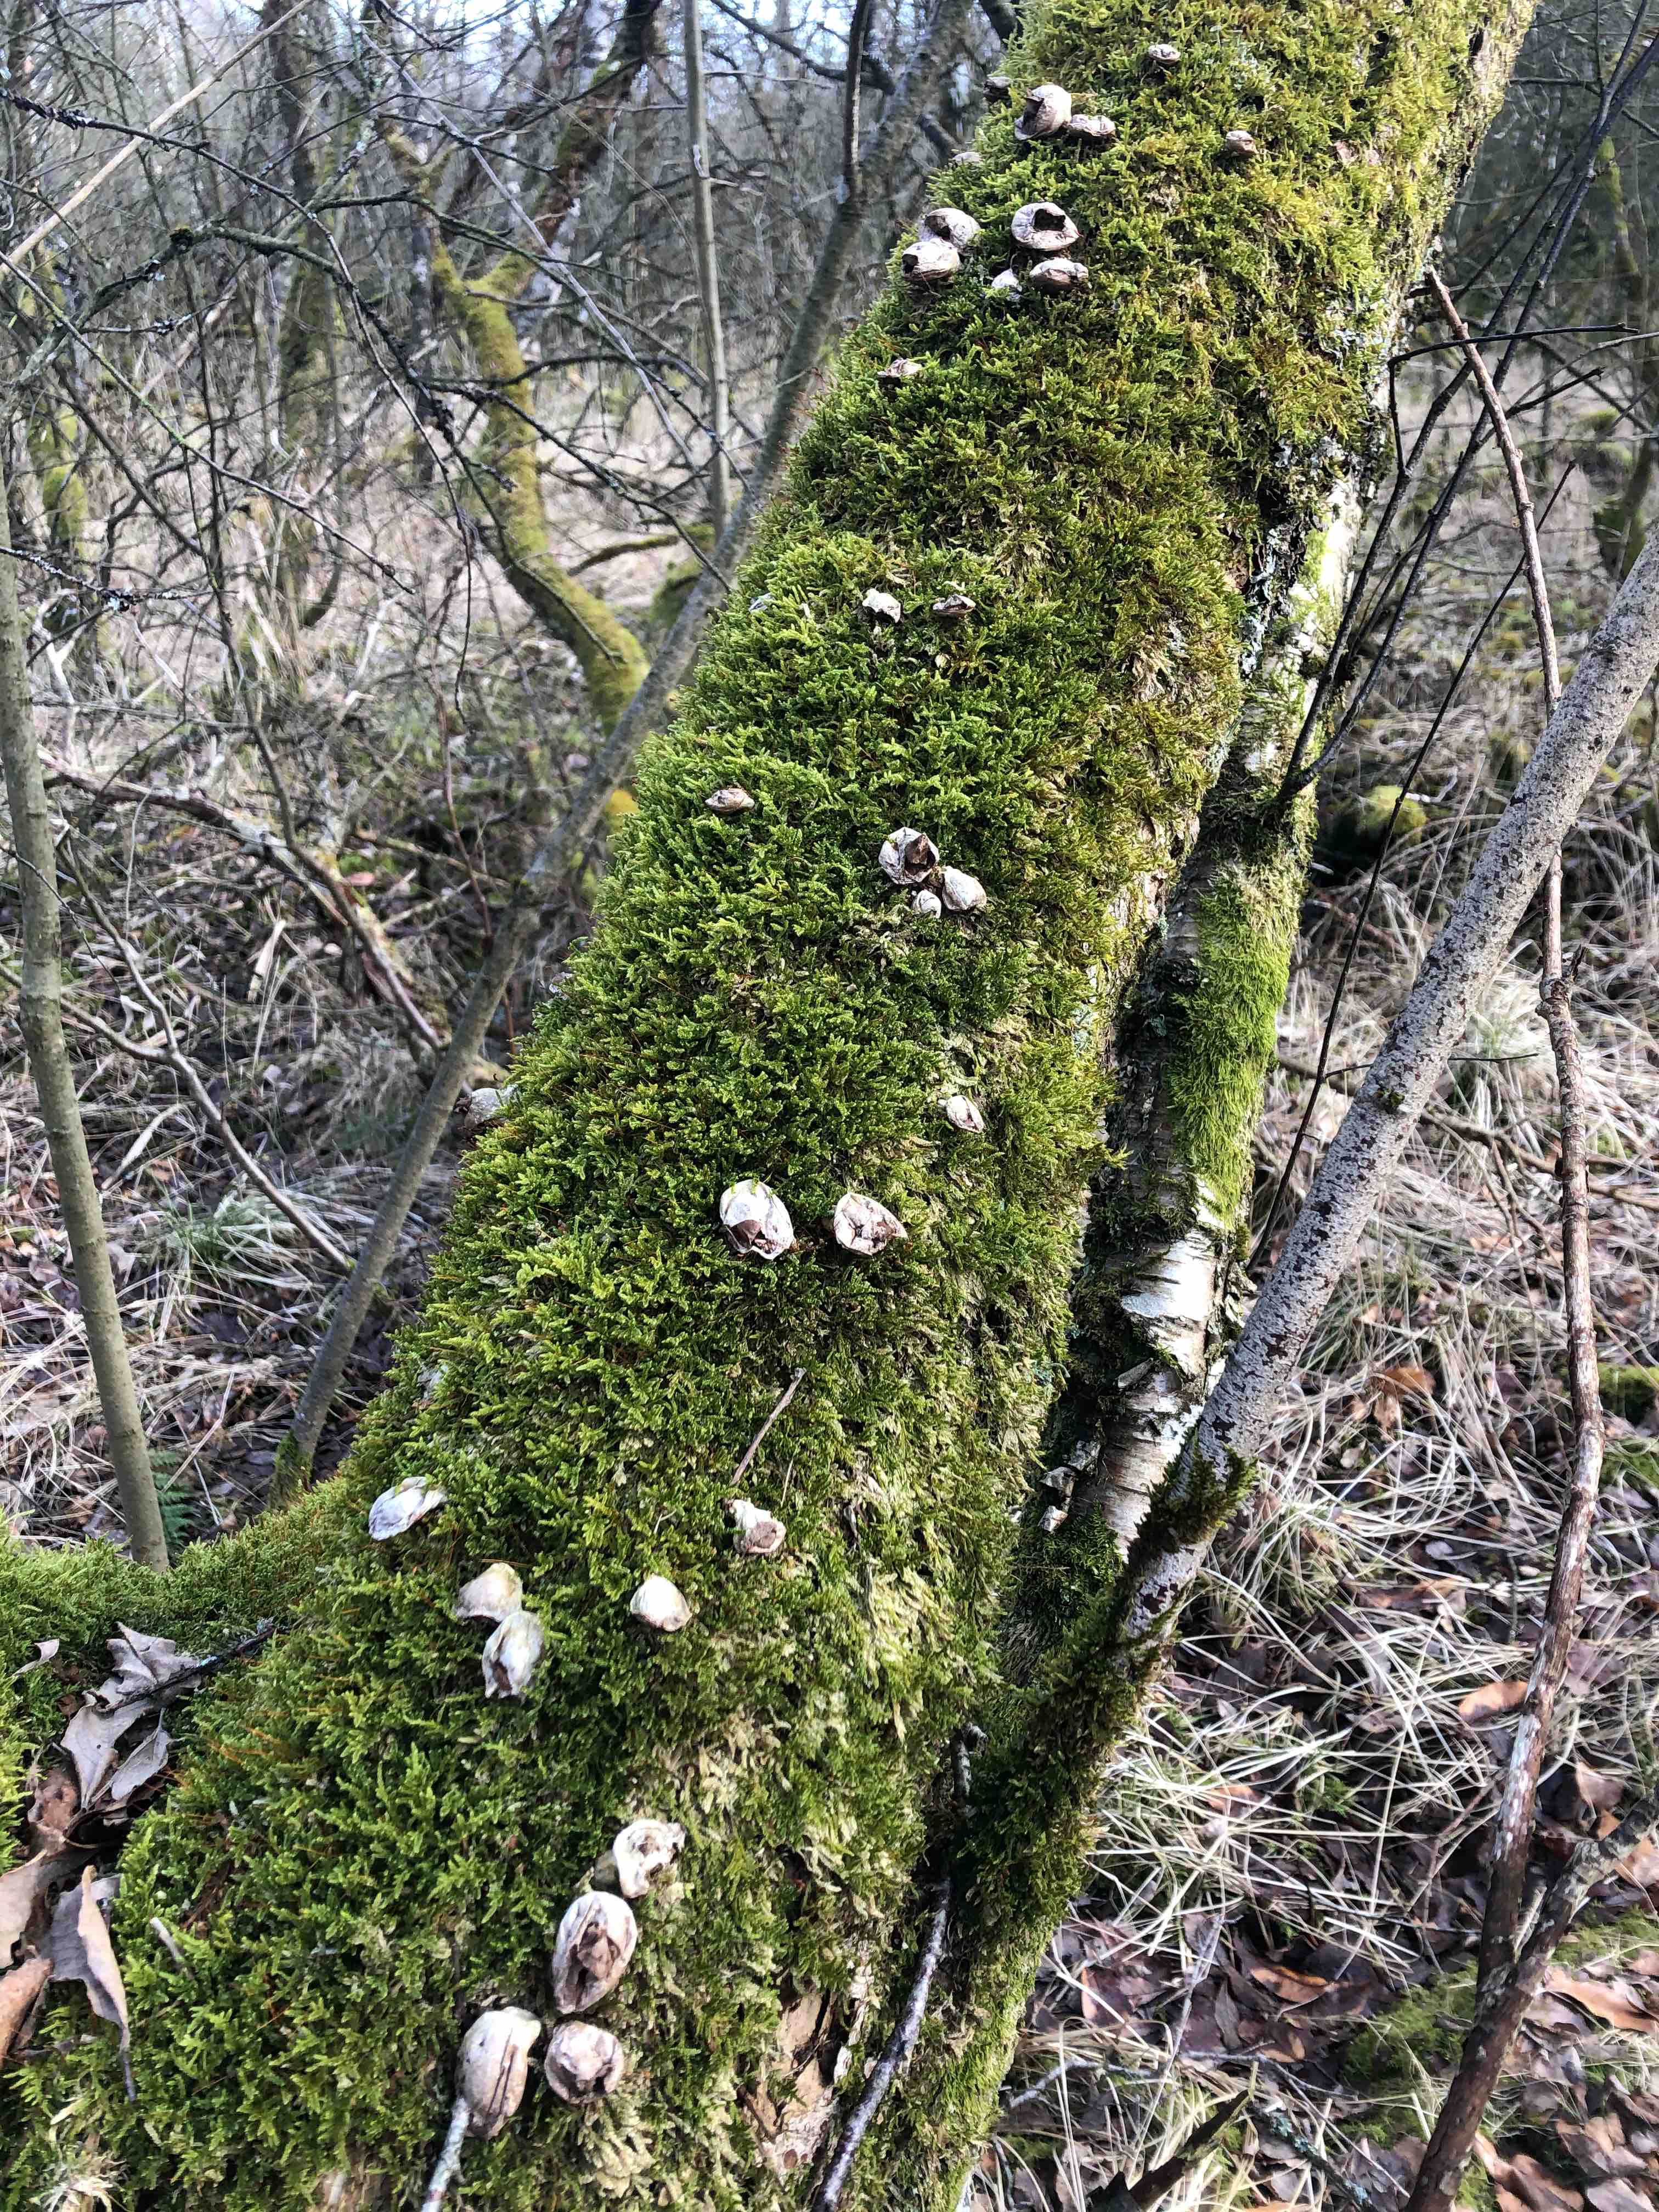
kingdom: Fungi
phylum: Basidiomycota
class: Agaricomycetes
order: Agaricales
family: Lycoperdaceae
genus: Apioperdon
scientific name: Apioperdon pyriforme
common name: pære-støvbold
